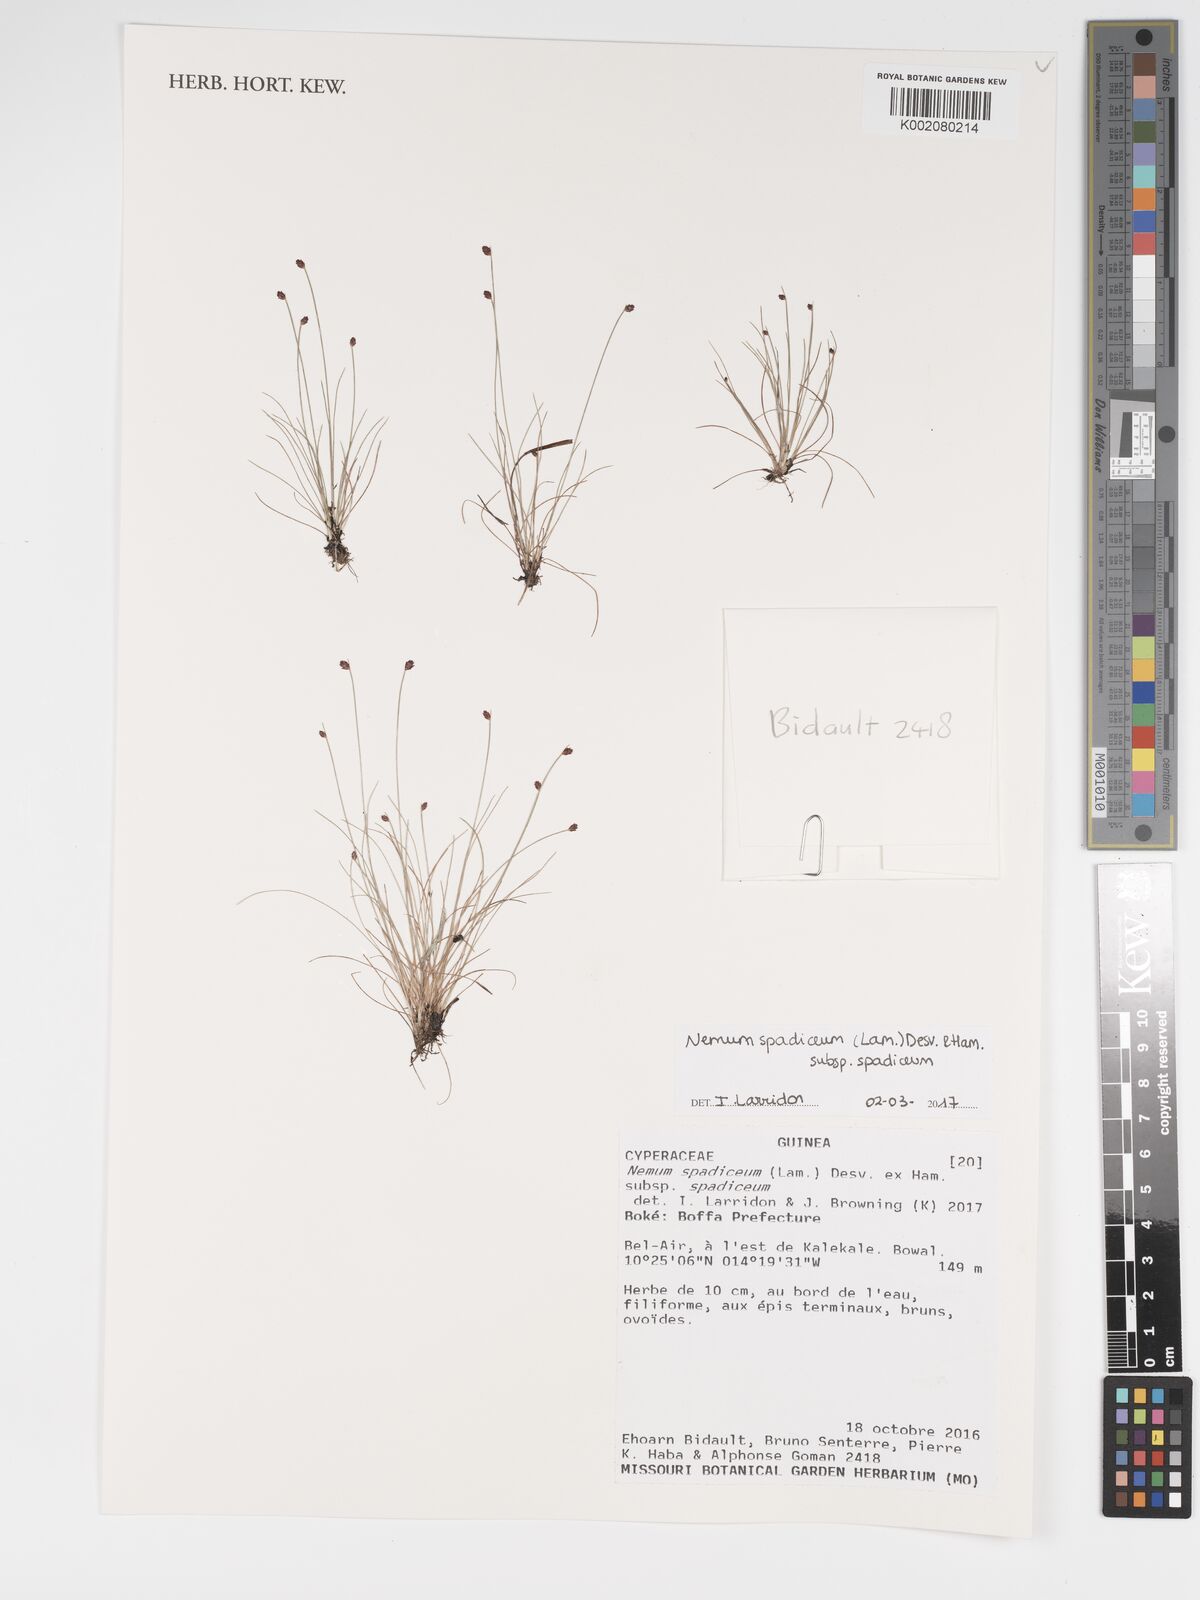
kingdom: Plantae
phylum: Tracheophyta
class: Liliopsida
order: Poales
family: Cyperaceae
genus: Bulbostylis
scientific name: Bulbostylis briziformis
